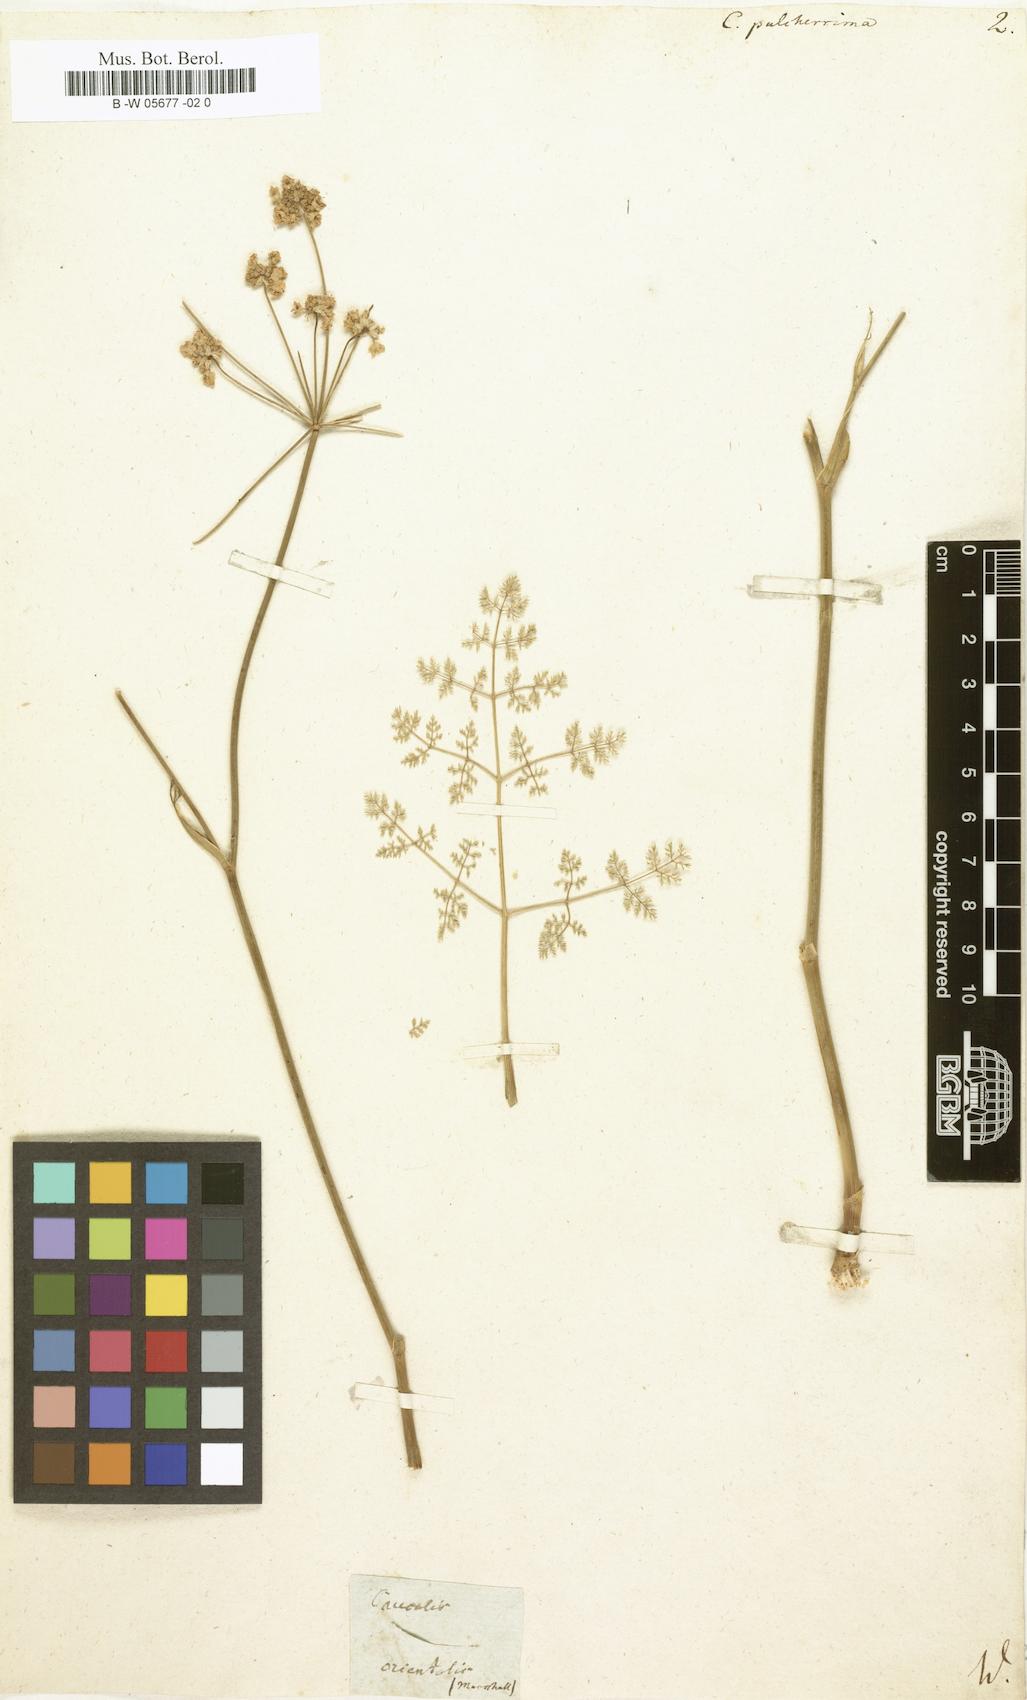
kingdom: Plantae
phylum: Tracheophyta
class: Magnoliopsida
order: Apiales
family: Apiaceae
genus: Astrodaucus
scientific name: Astrodaucus orientalis
